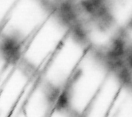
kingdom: Animalia
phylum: Chordata
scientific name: Chordata
